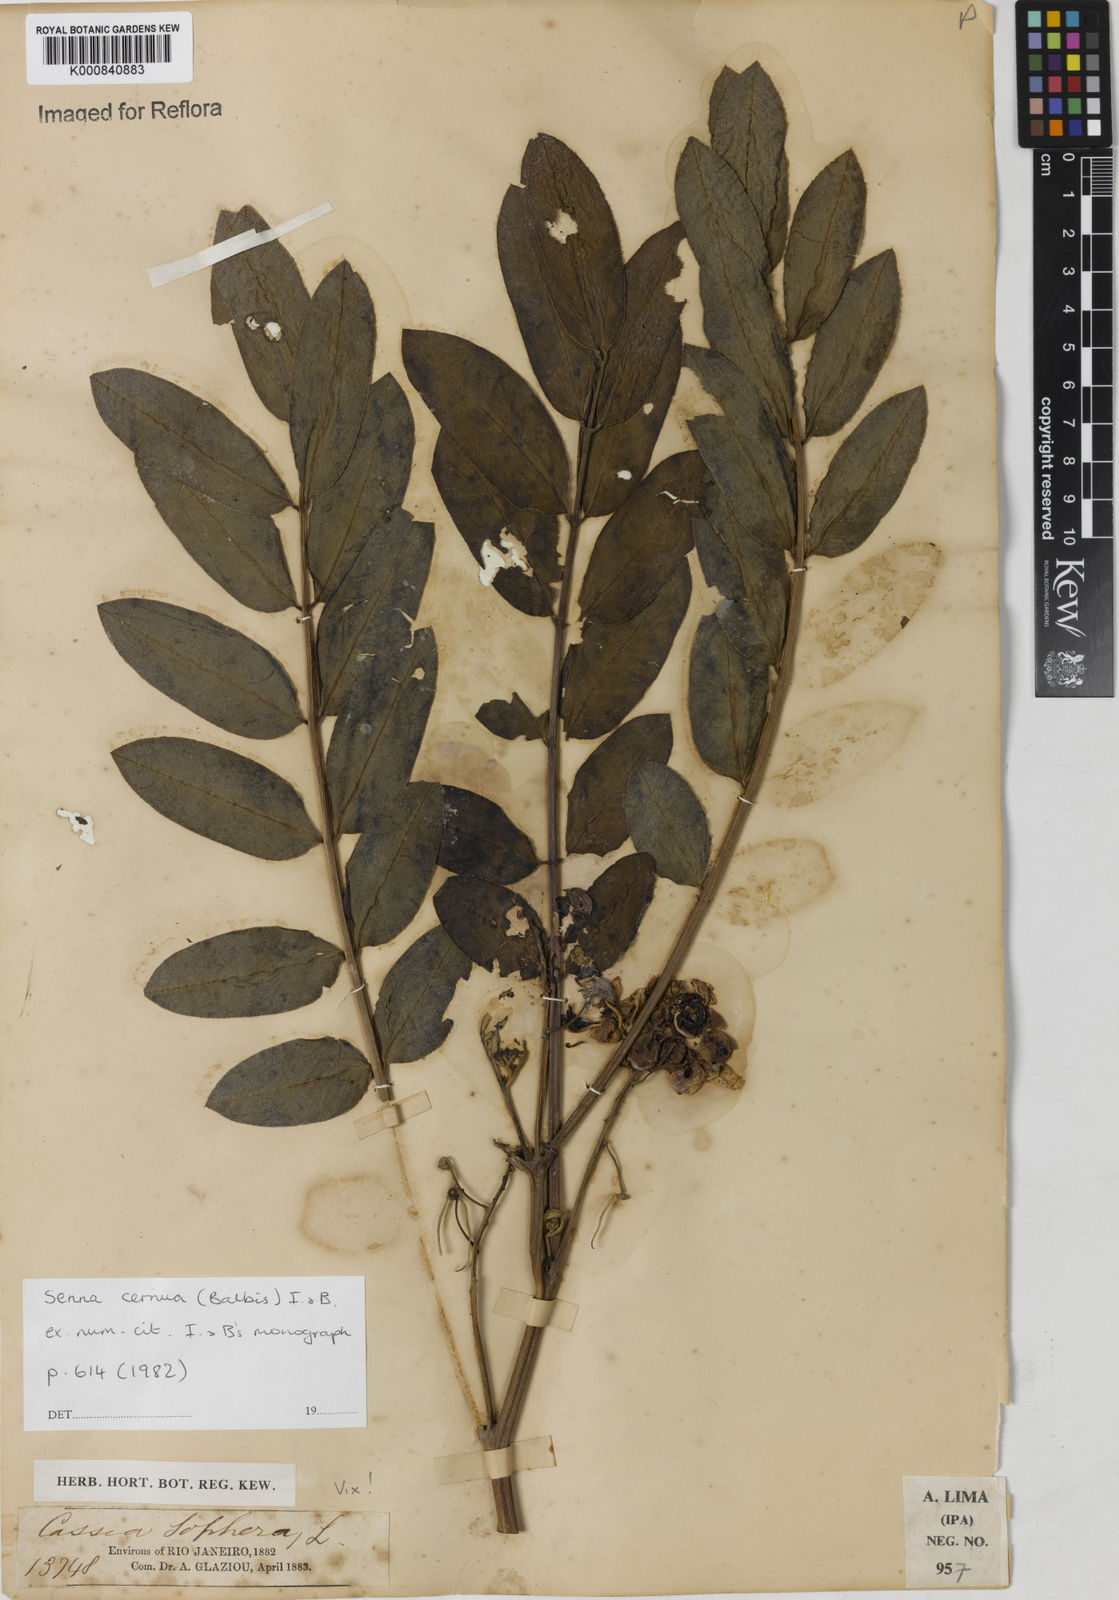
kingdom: Plantae
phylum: Tracheophyta
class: Magnoliopsida
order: Fabales
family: Fabaceae
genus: Senna
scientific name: Senna cernua
